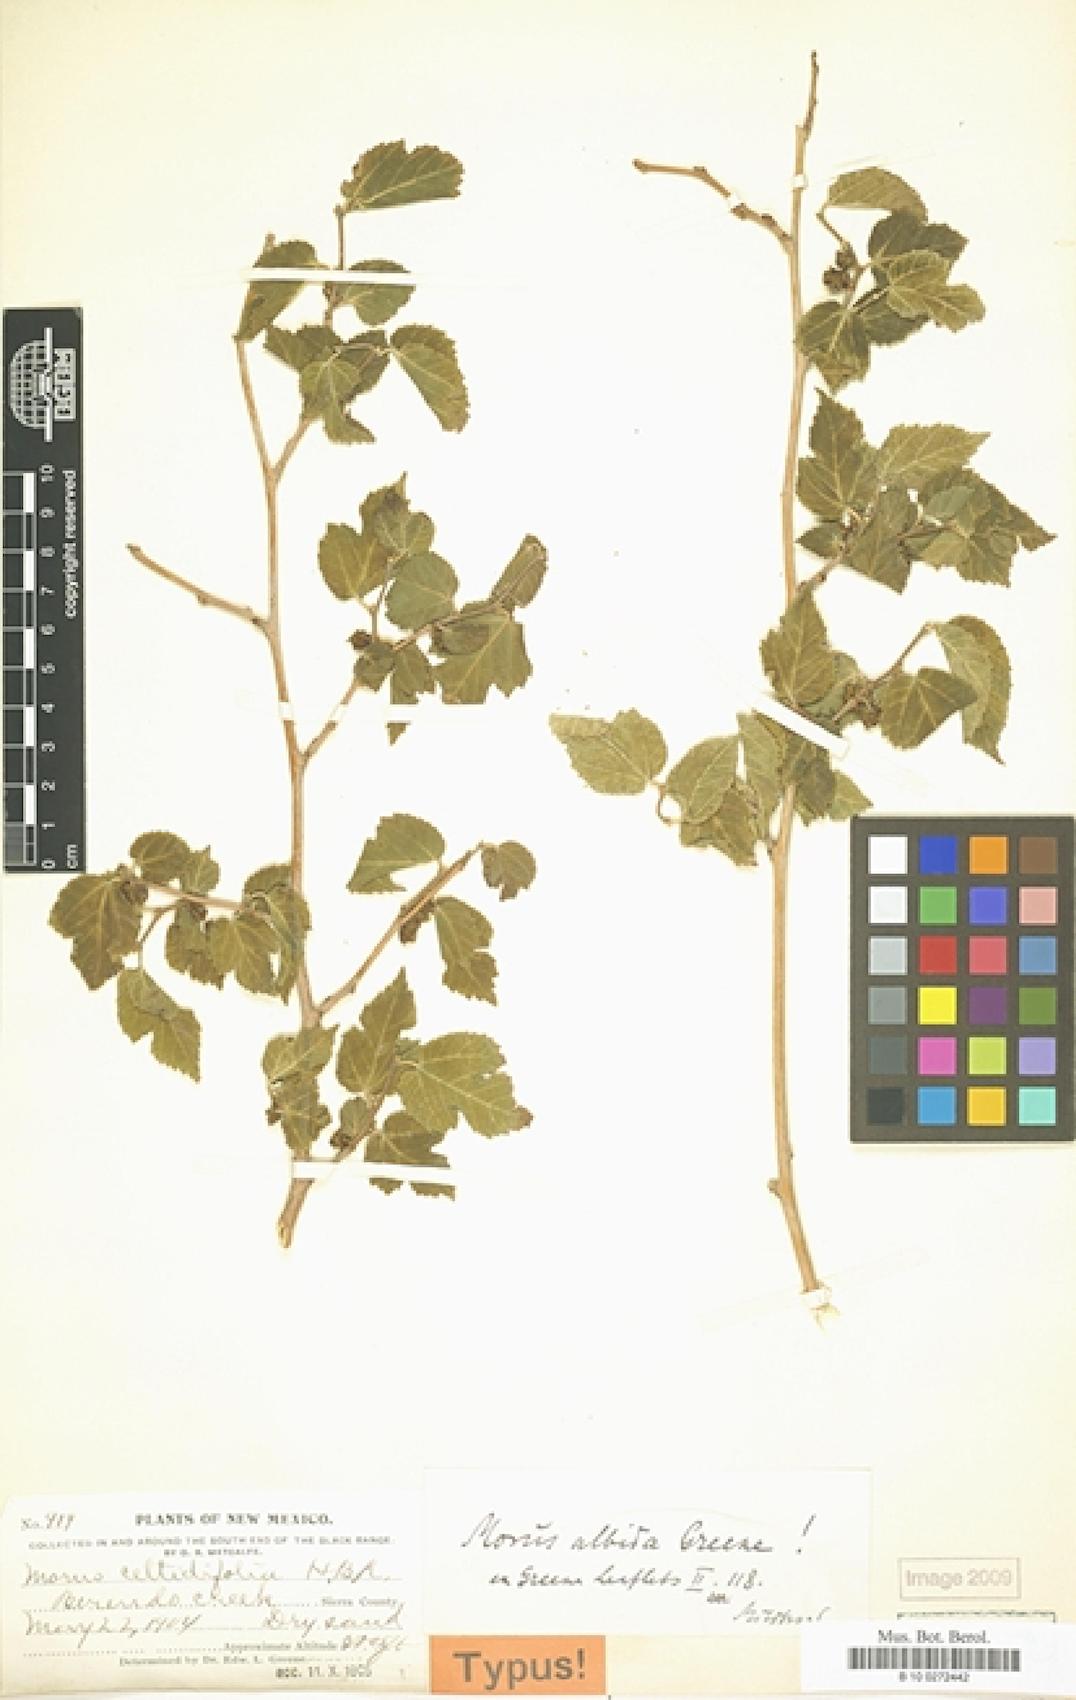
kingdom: Plantae
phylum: Tracheophyta
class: Magnoliopsida
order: Rosales
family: Moraceae
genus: Morus
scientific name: Morus celtidifolia
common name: Texas mulberry
